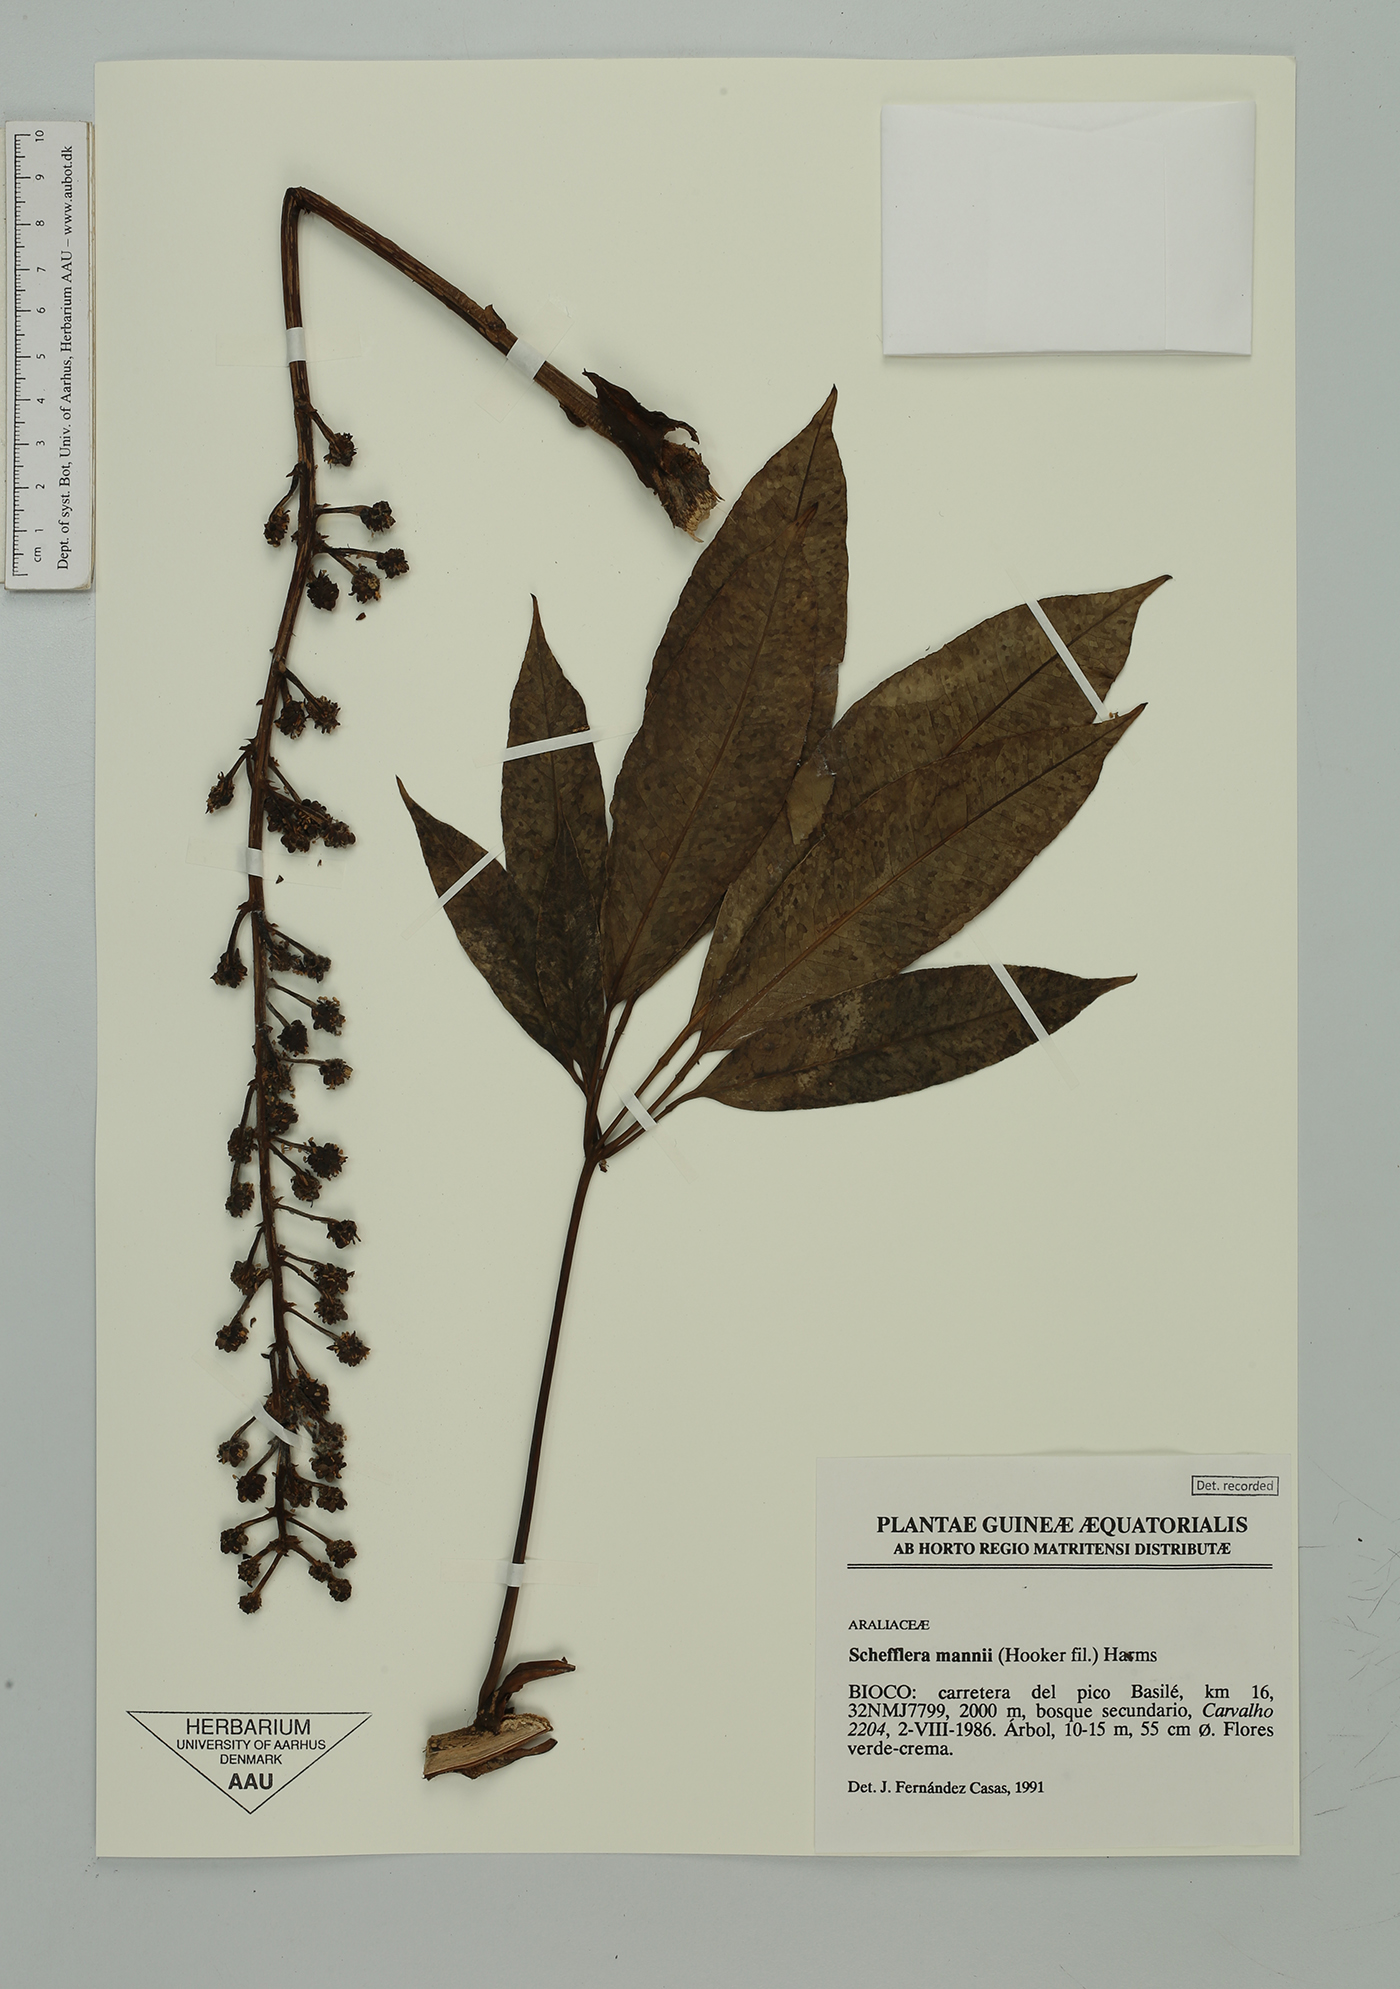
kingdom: Plantae
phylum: Tracheophyta
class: Magnoliopsida
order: Apiales
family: Araliaceae
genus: Astropanax
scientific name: Astropanax mannii
